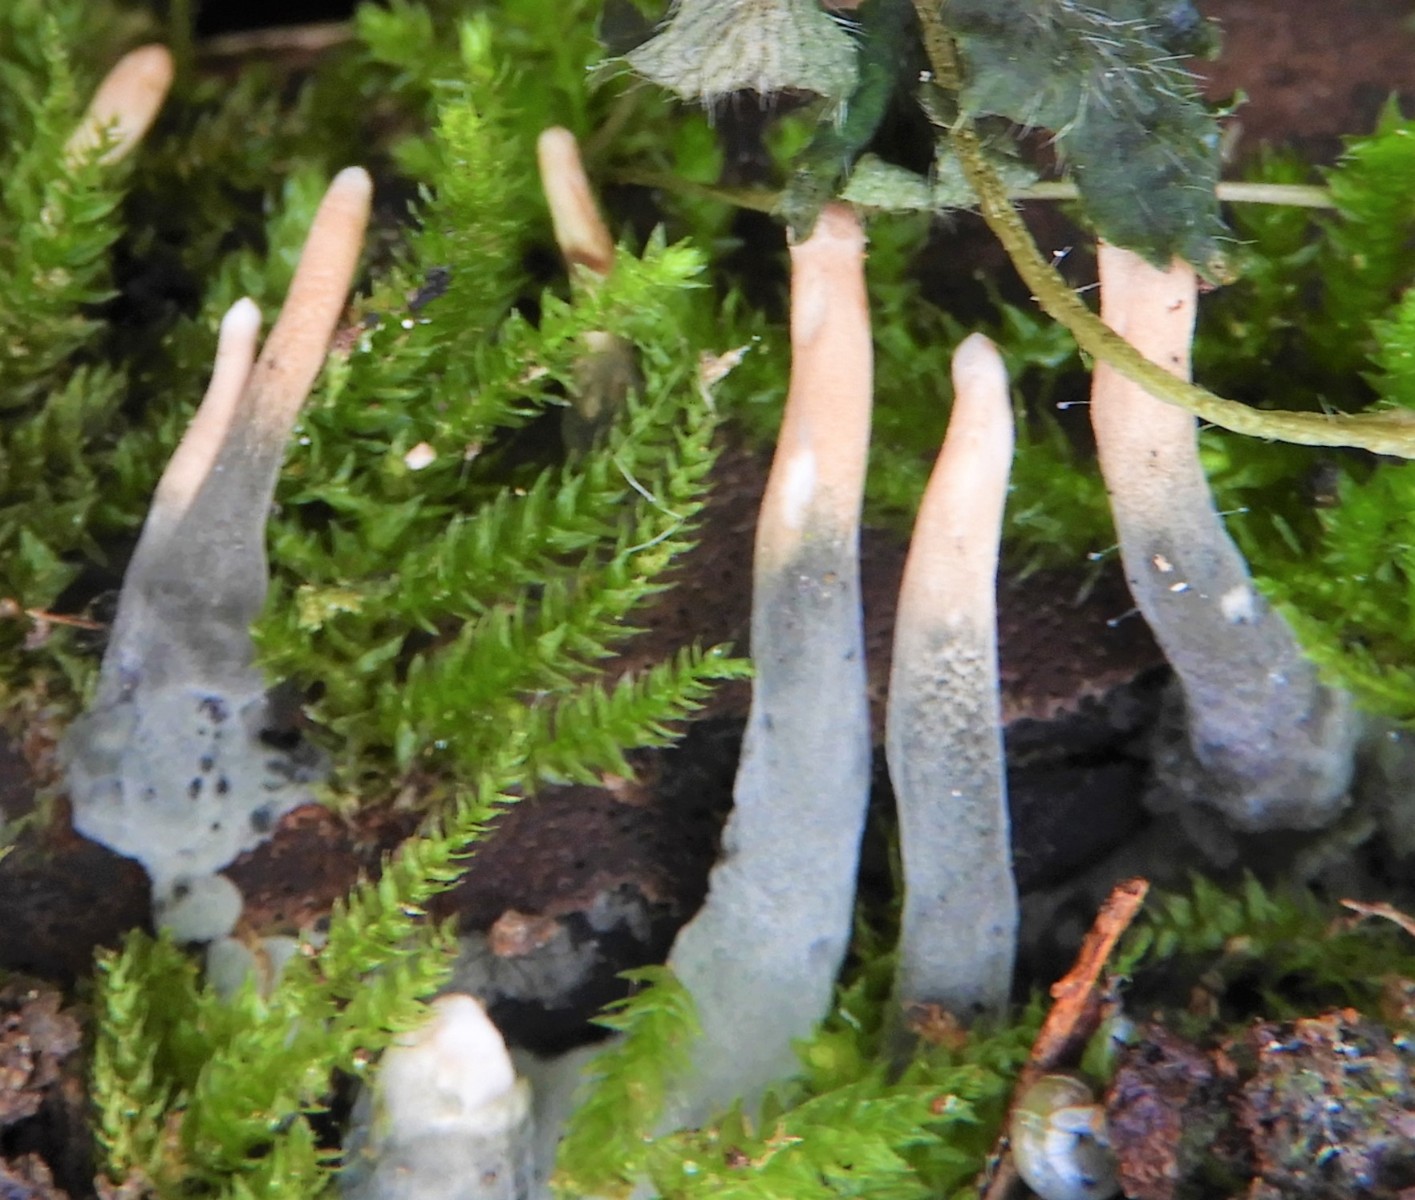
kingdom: Fungi
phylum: Ascomycota
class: Sordariomycetes
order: Xylariales
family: Xylariaceae
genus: Xylaria
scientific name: Xylaria hypoxylon
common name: grenet stødsvamp
